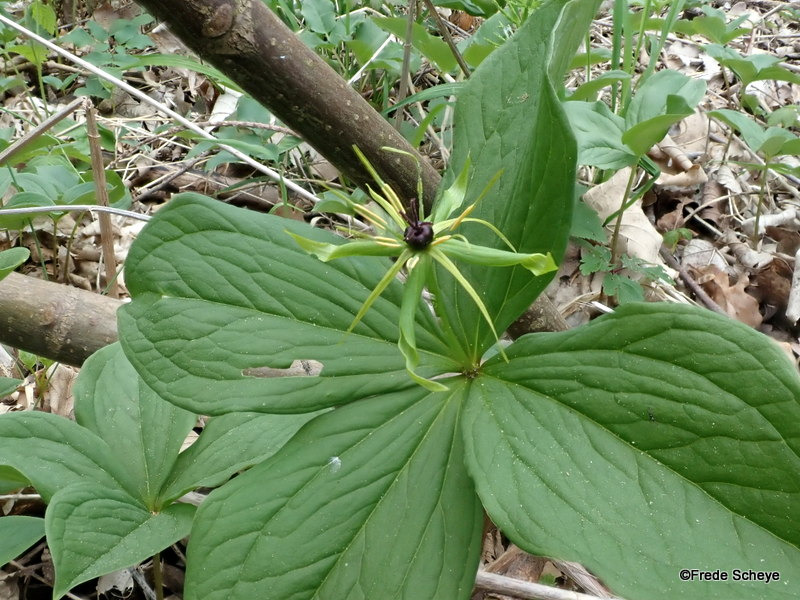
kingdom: Plantae
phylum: Tracheophyta
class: Liliopsida
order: Liliales
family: Melanthiaceae
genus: Paris
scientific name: Paris quadrifolia
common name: Firblad
